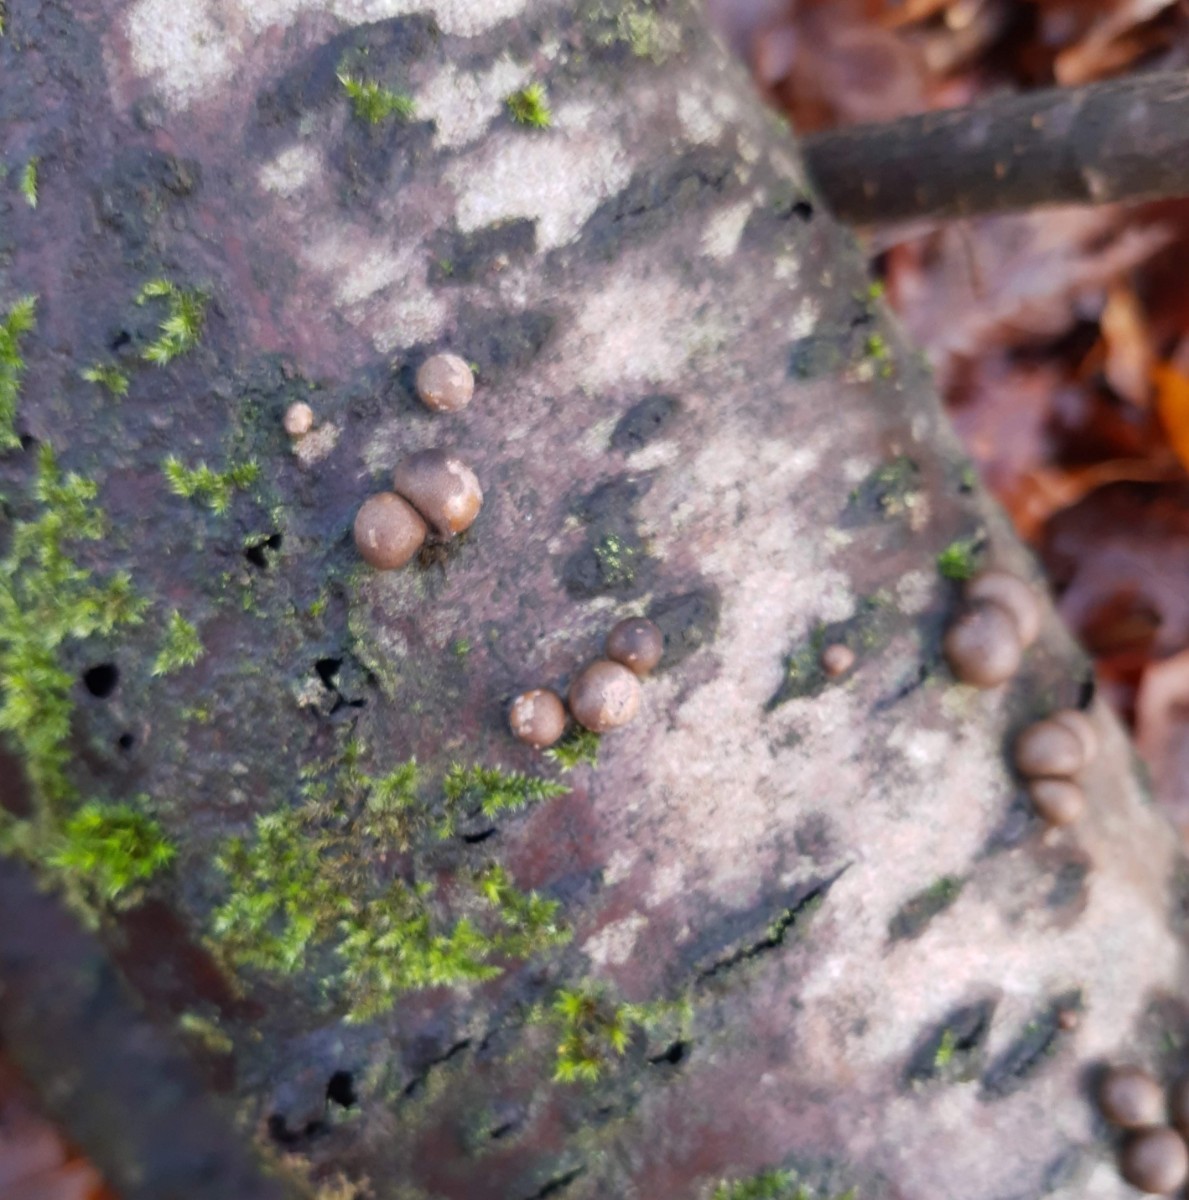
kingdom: Protozoa
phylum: Mycetozoa
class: Myxomycetes
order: Cribrariales
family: Tubiferaceae
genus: Lycogala
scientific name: Lycogala epidendrum
